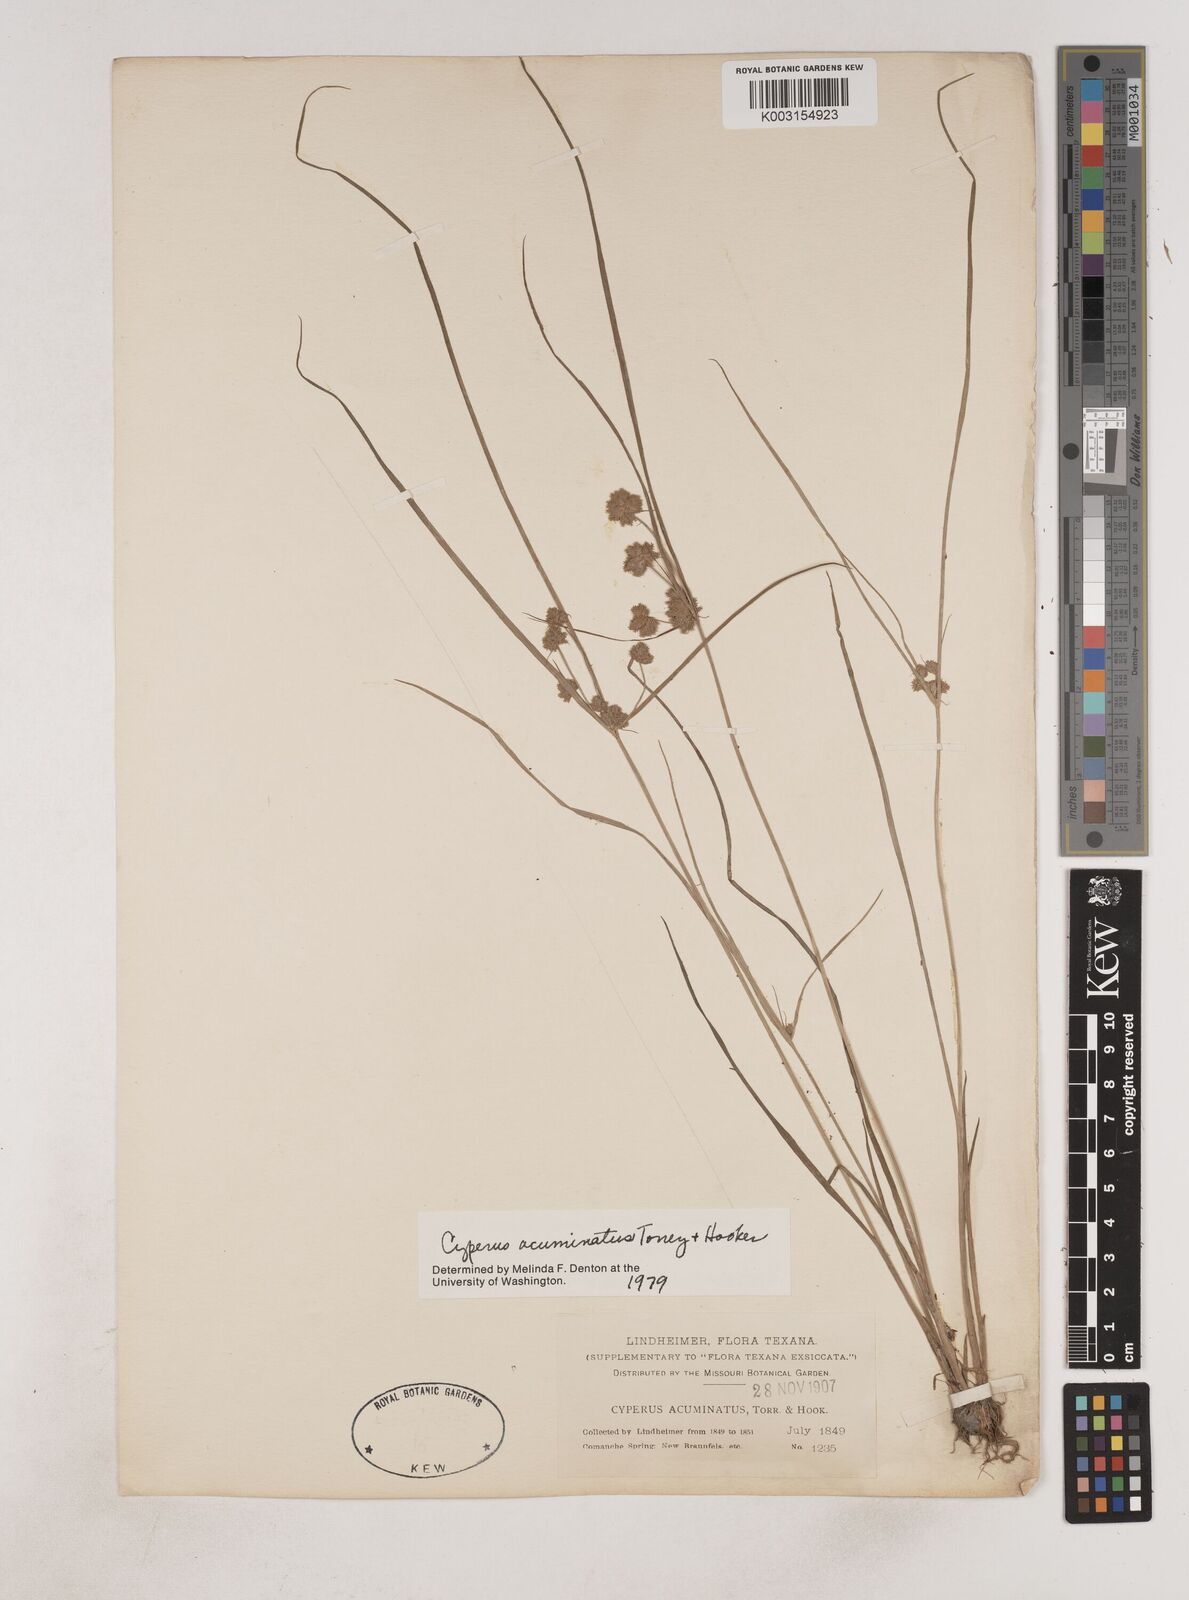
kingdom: Plantae
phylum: Tracheophyta
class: Liliopsida
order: Poales
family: Cyperaceae
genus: Cyperus
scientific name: Cyperus acuminatus
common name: Short-pointed cyperus
